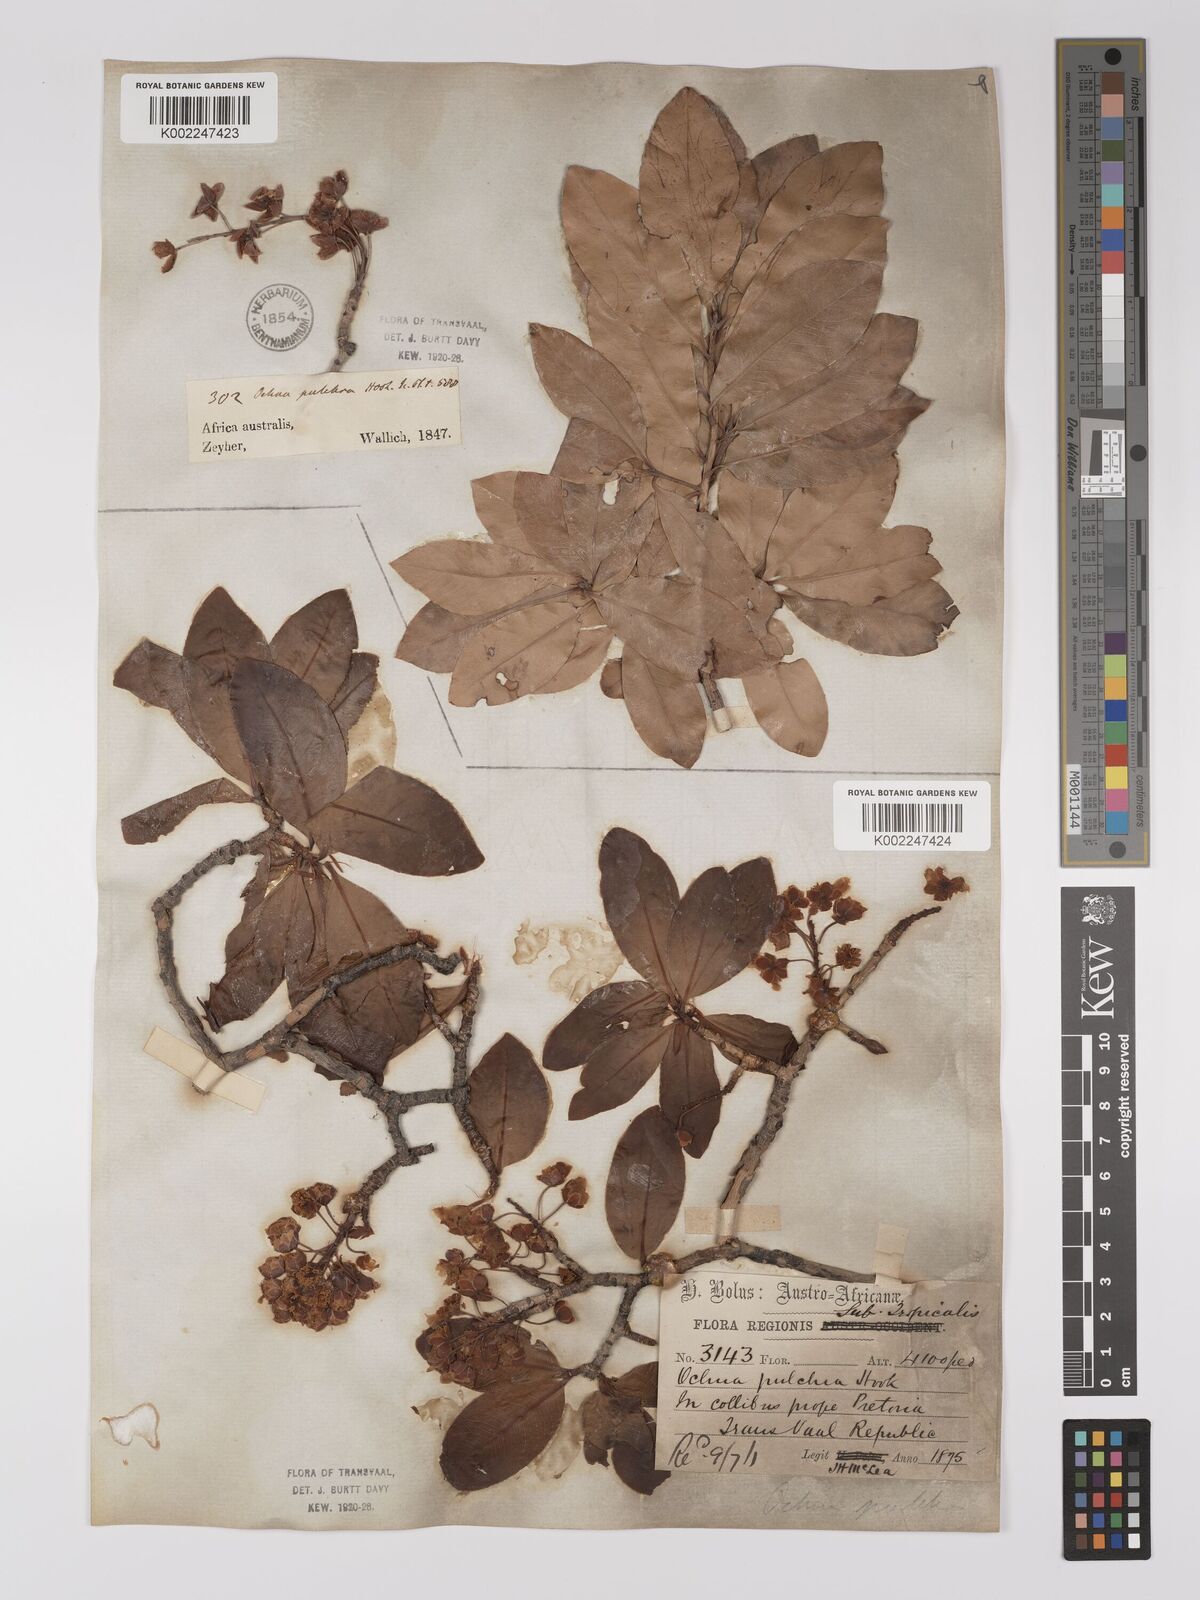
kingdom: Plantae
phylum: Tracheophyta
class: Magnoliopsida
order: Malpighiales
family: Ochnaceae
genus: Ochna
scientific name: Ochna pulchra
